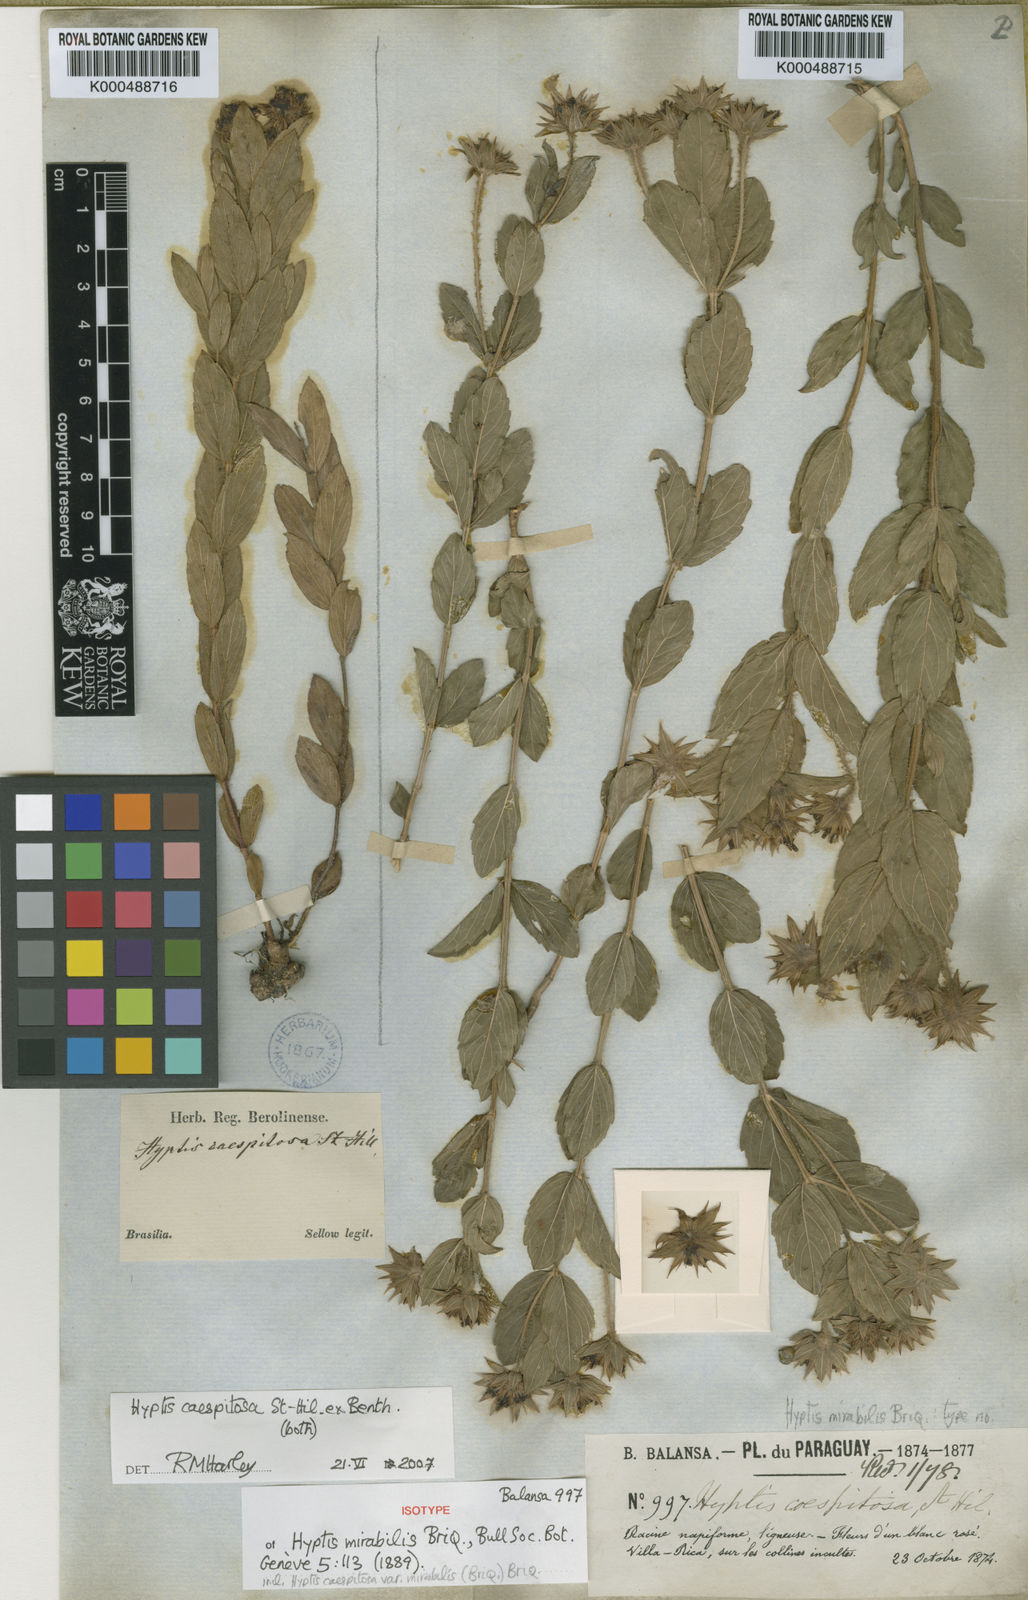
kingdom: Plantae
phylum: Tracheophyta
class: Magnoliopsida
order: Lamiales
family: Lamiaceae
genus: Hyptis
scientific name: Hyptis caespitosa
